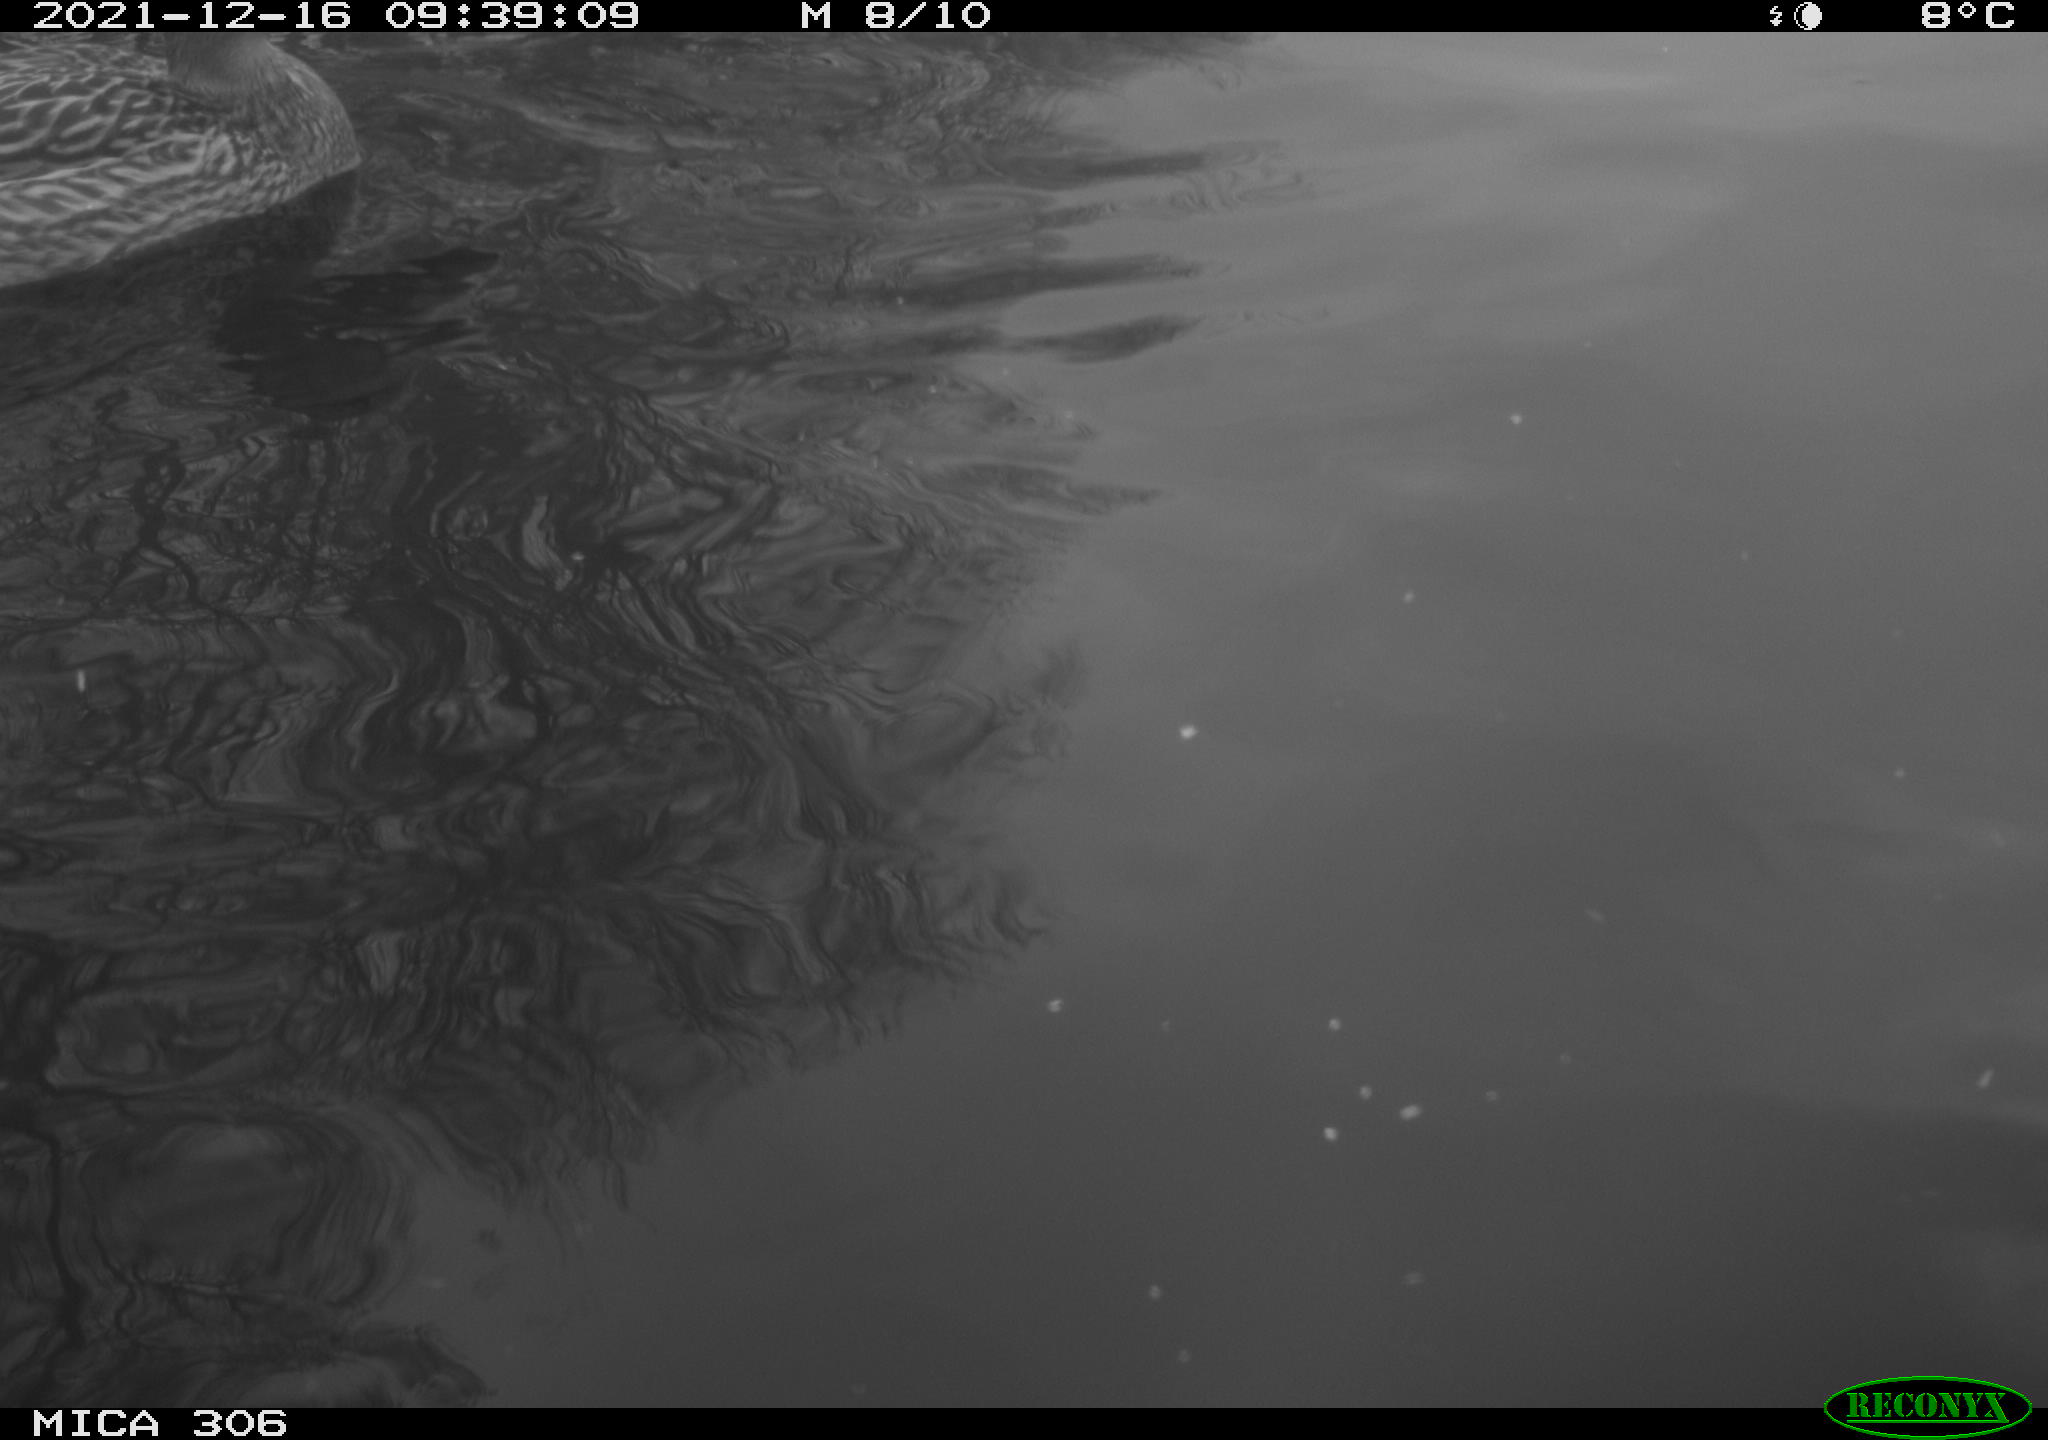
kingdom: Animalia
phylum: Chordata
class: Aves
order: Anseriformes
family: Anatidae
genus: Anas
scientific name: Anas platyrhynchos
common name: Mallard
